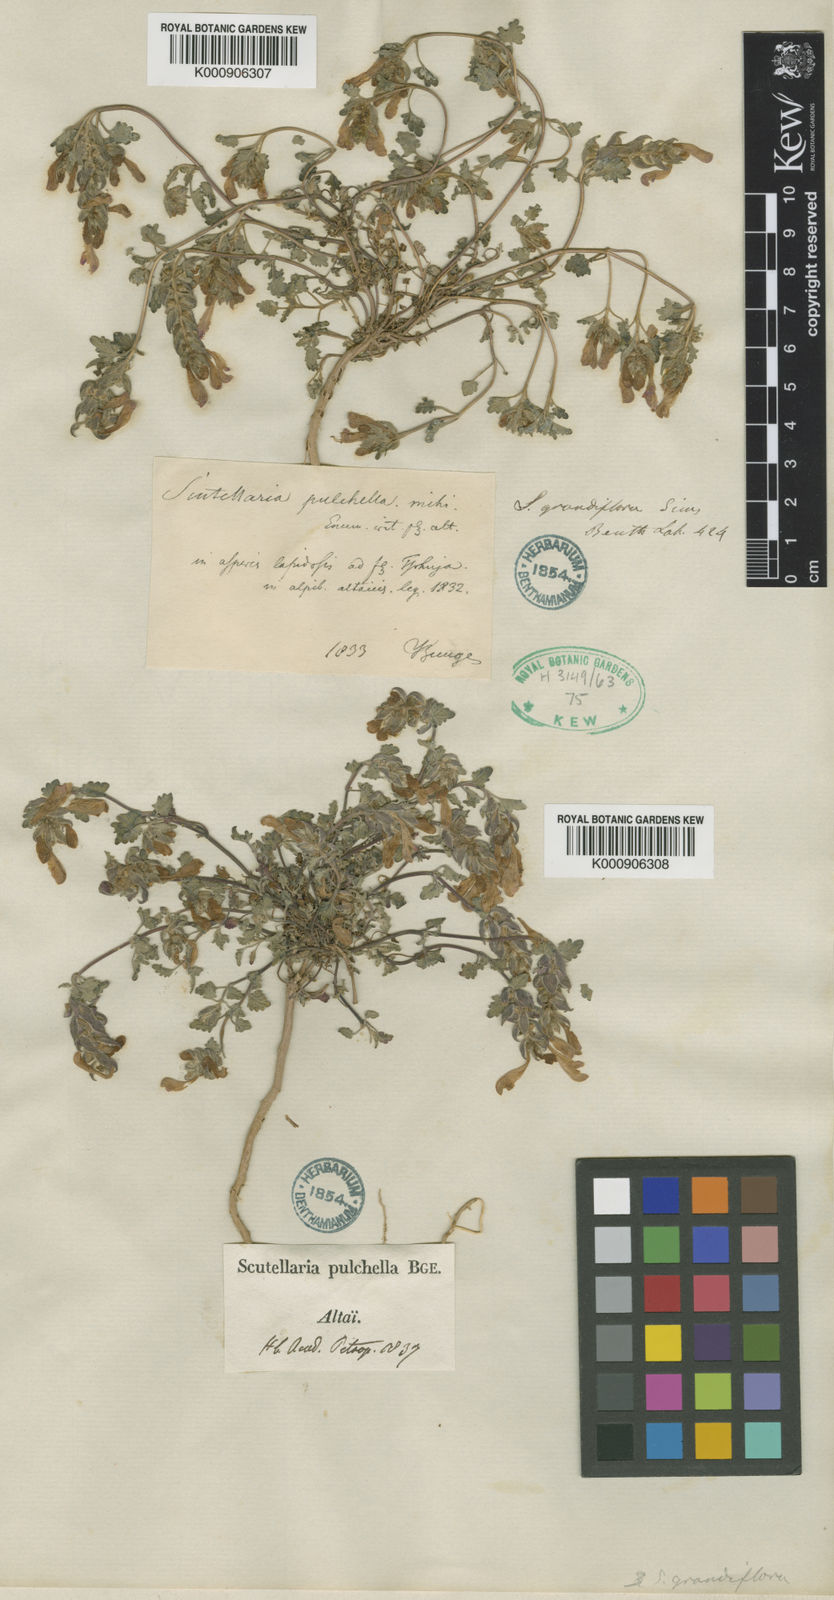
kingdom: Plantae
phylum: Tracheophyta
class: Magnoliopsida
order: Lamiales
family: Lamiaceae
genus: Scutellaria
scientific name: Scutellaria grandiflora
